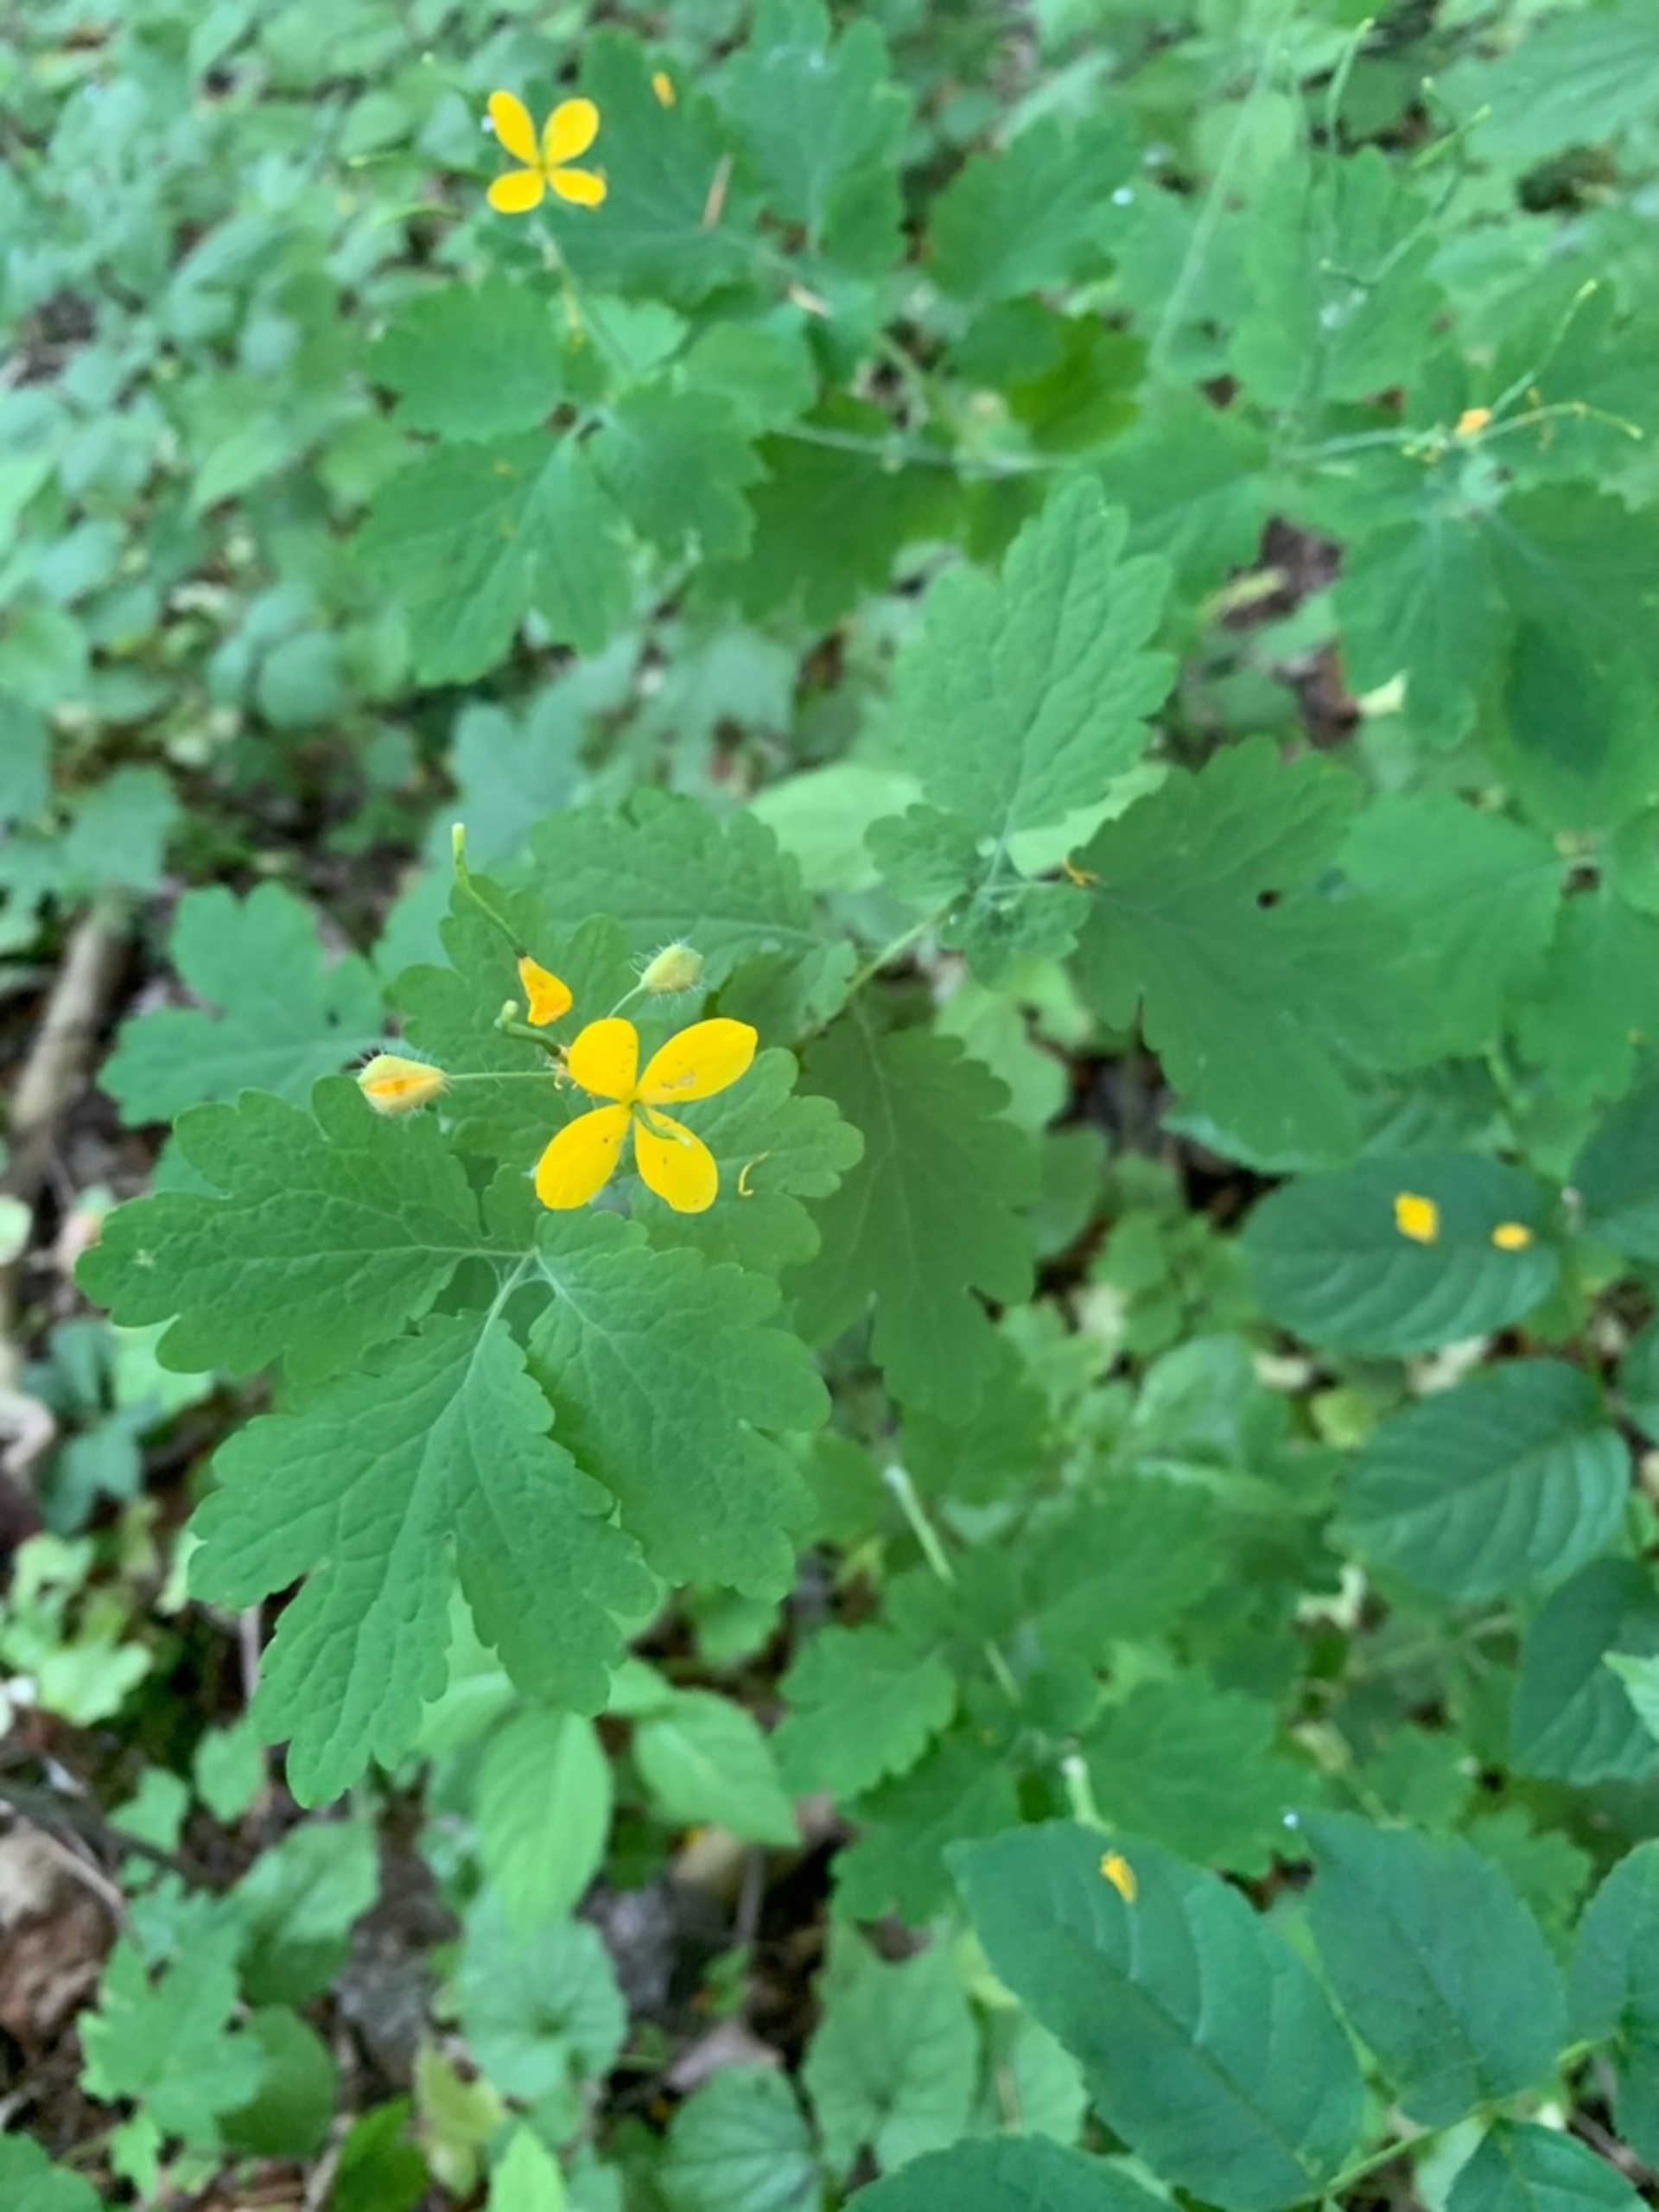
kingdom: Plantae
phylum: Tracheophyta
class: Magnoliopsida
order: Ranunculales
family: Papaveraceae
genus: Chelidonium
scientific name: Chelidonium majus
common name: Svaleurt
